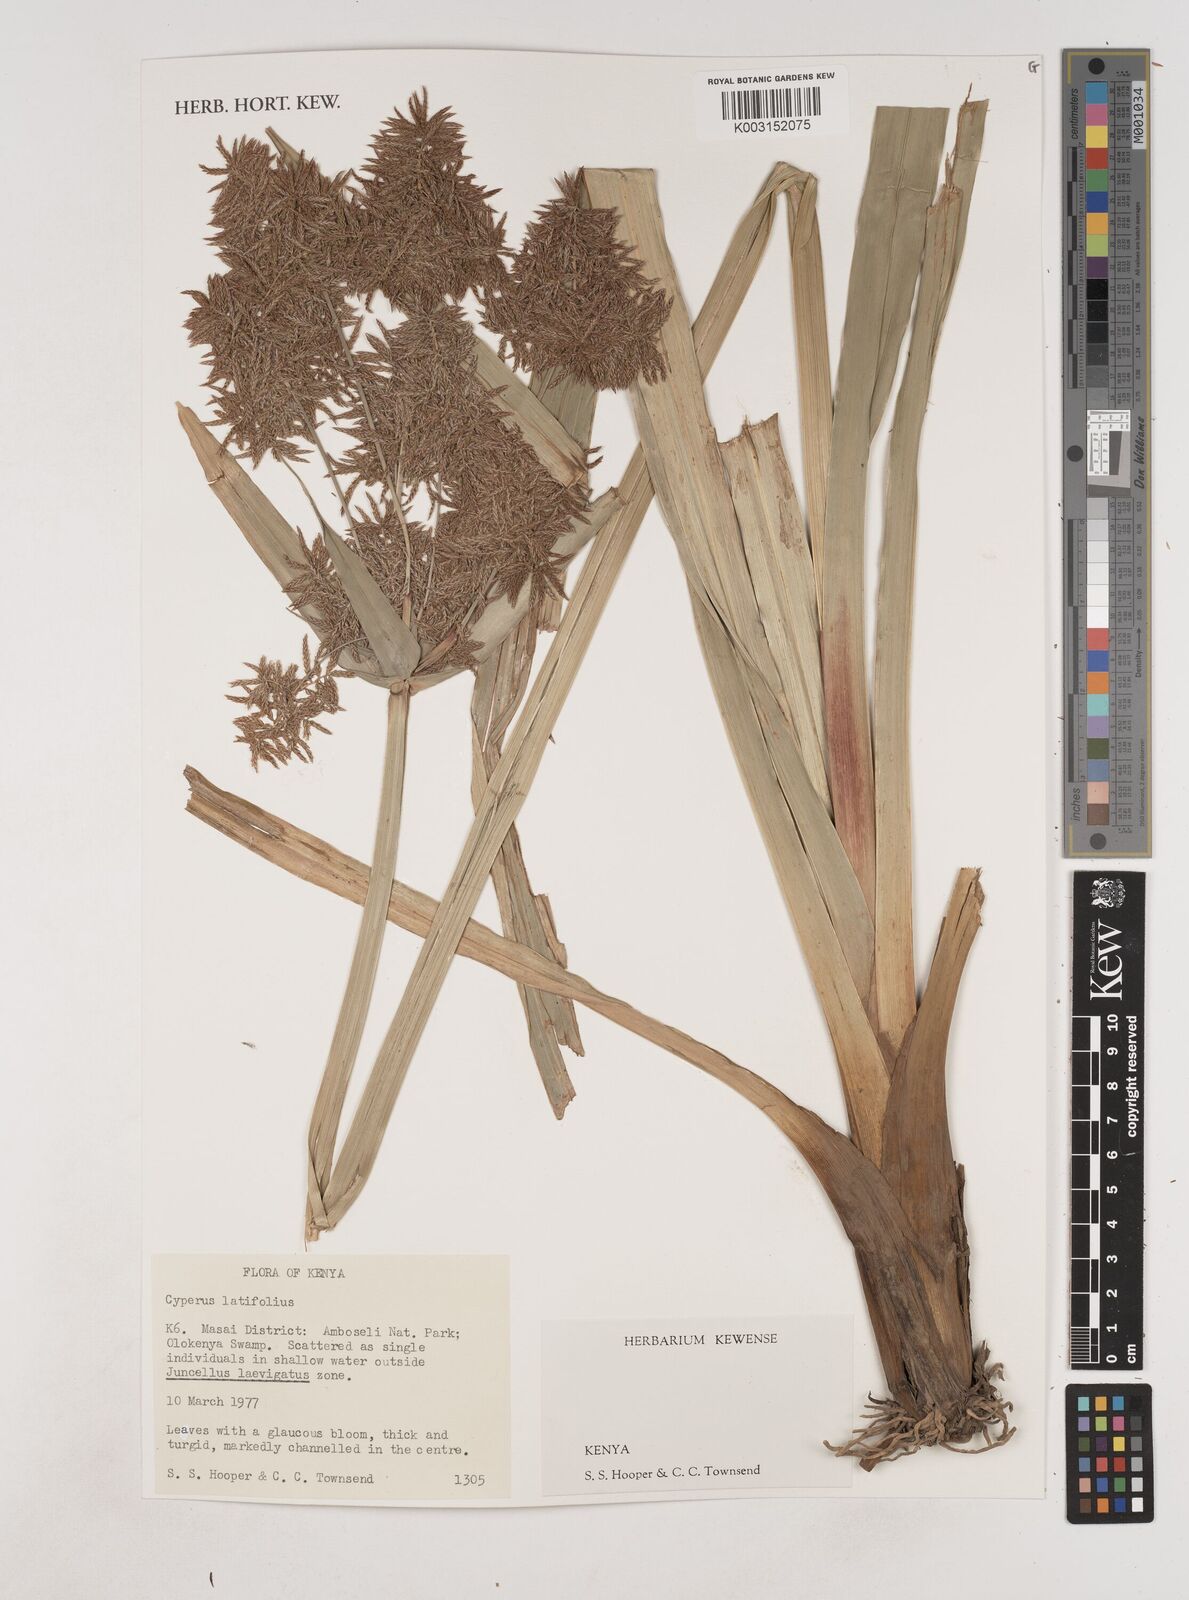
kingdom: Plantae
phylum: Tracheophyta
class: Liliopsida
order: Poales
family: Cyperaceae
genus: Cyperus
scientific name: Cyperus latifolius
